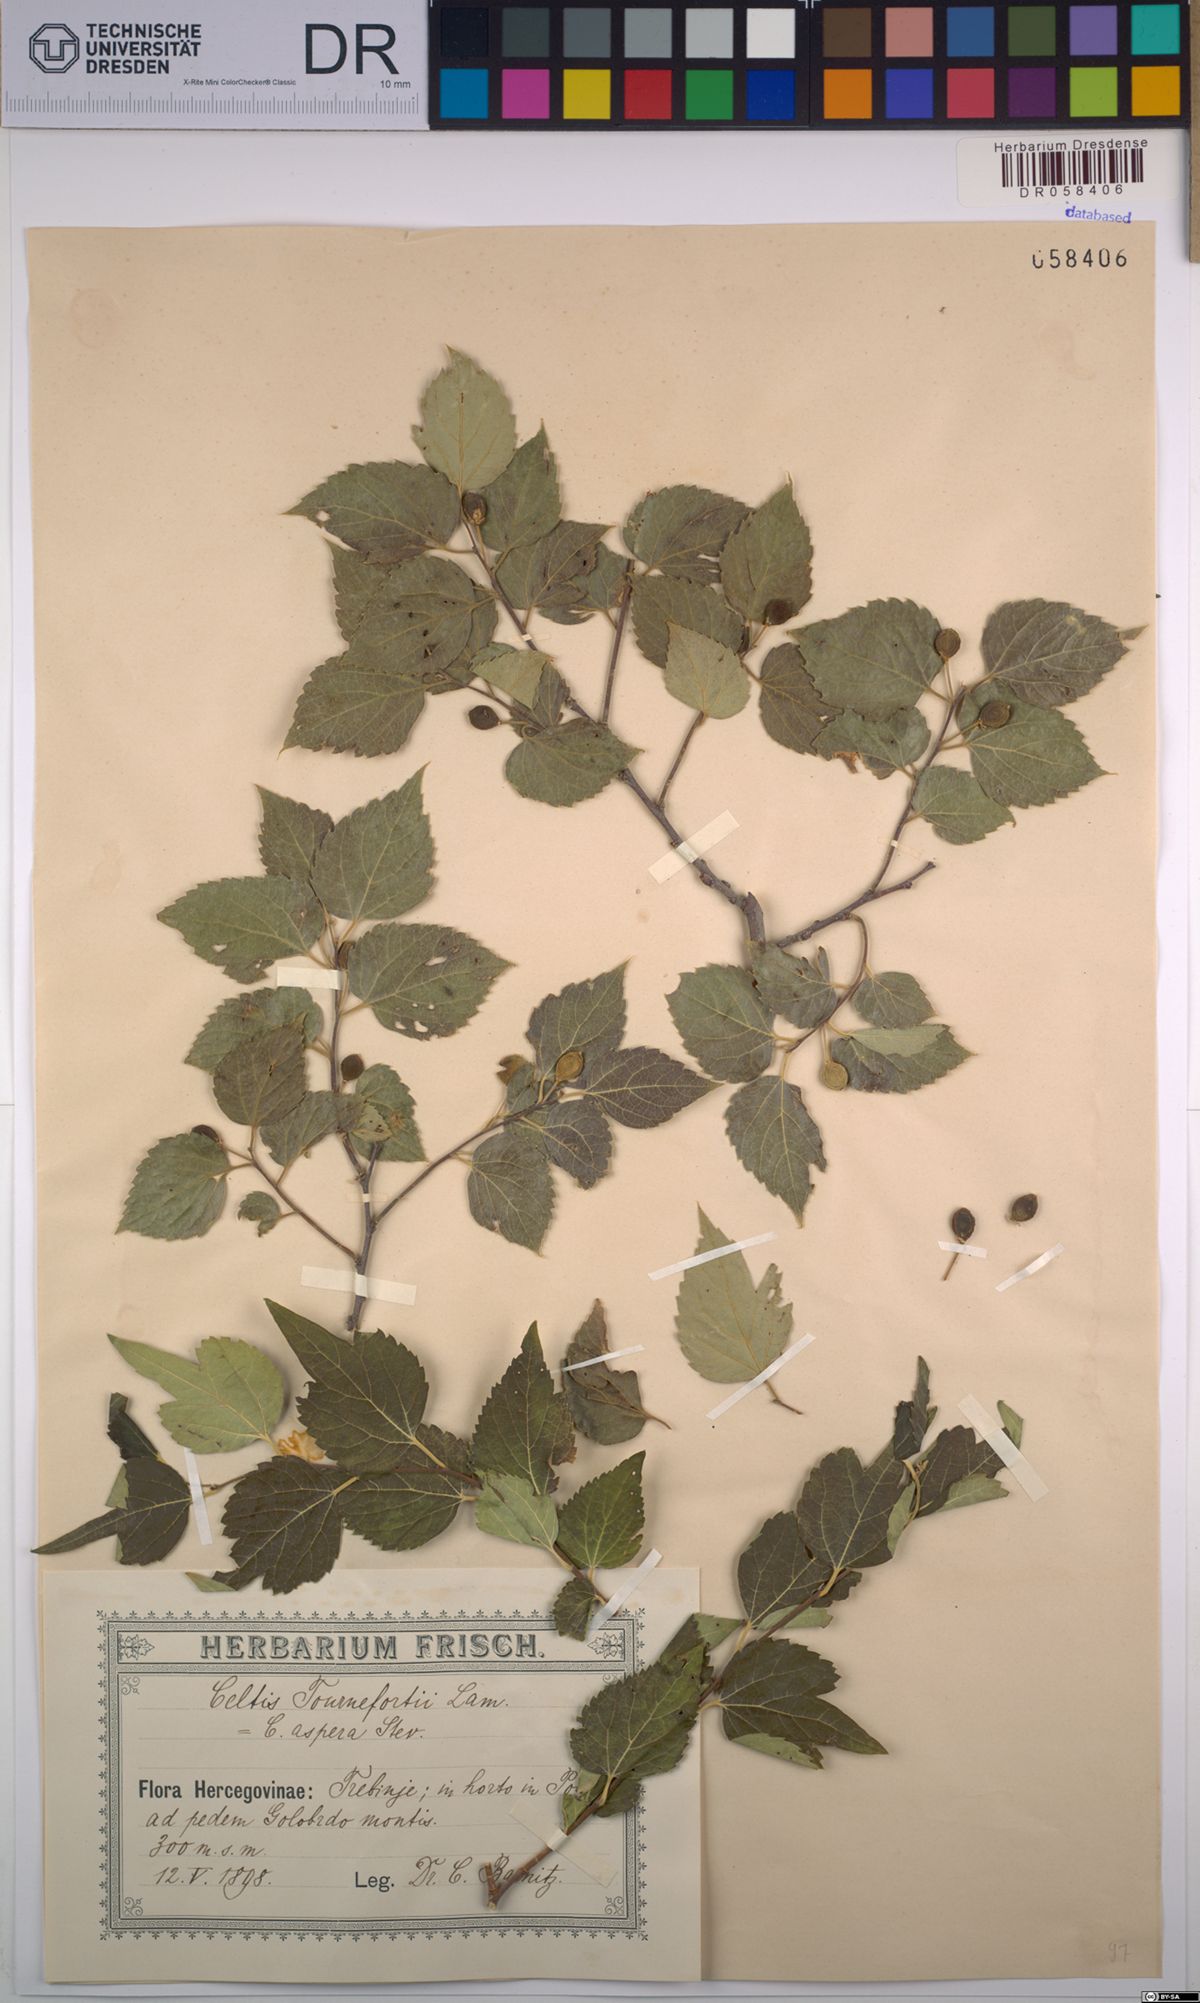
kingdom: Plantae
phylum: Tracheophyta
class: Magnoliopsida
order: Rosales
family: Cannabaceae
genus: Celtis
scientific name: Celtis tournefortii
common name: Oriental hackberry
